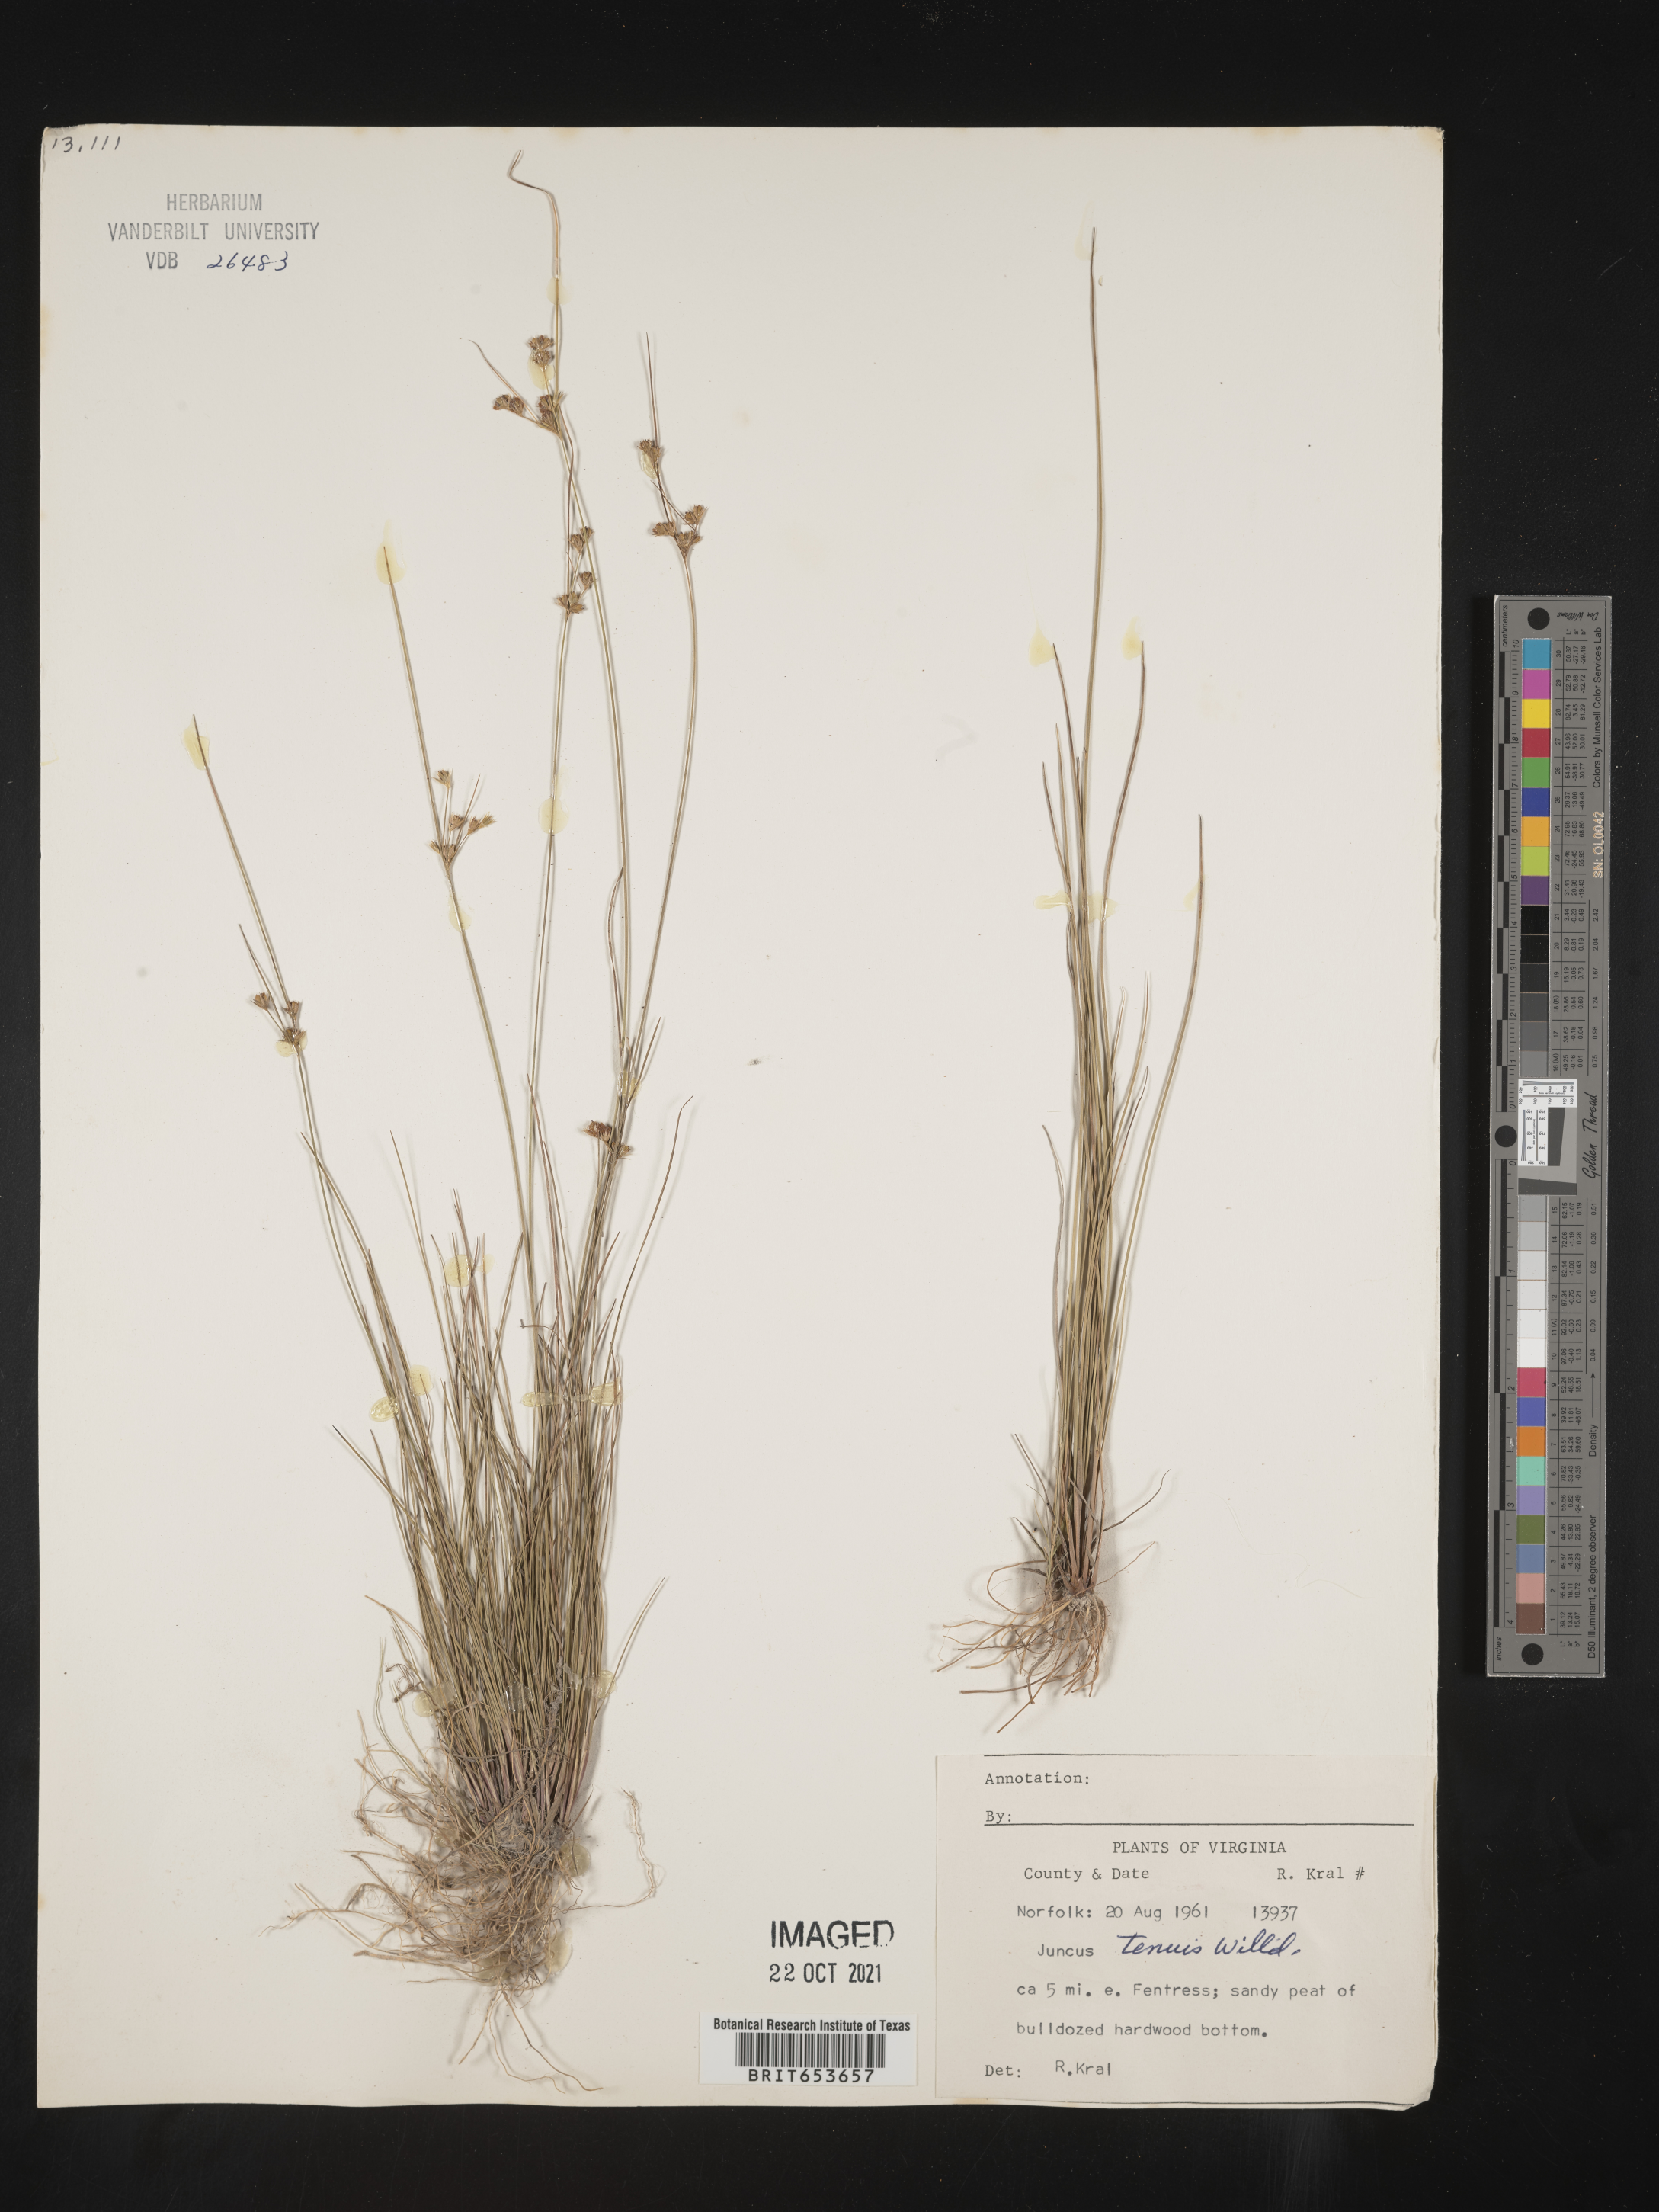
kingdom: Plantae
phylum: Tracheophyta
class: Liliopsida
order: Poales
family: Juncaceae
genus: Juncus
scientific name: Juncus tenuis
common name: Slender rush
